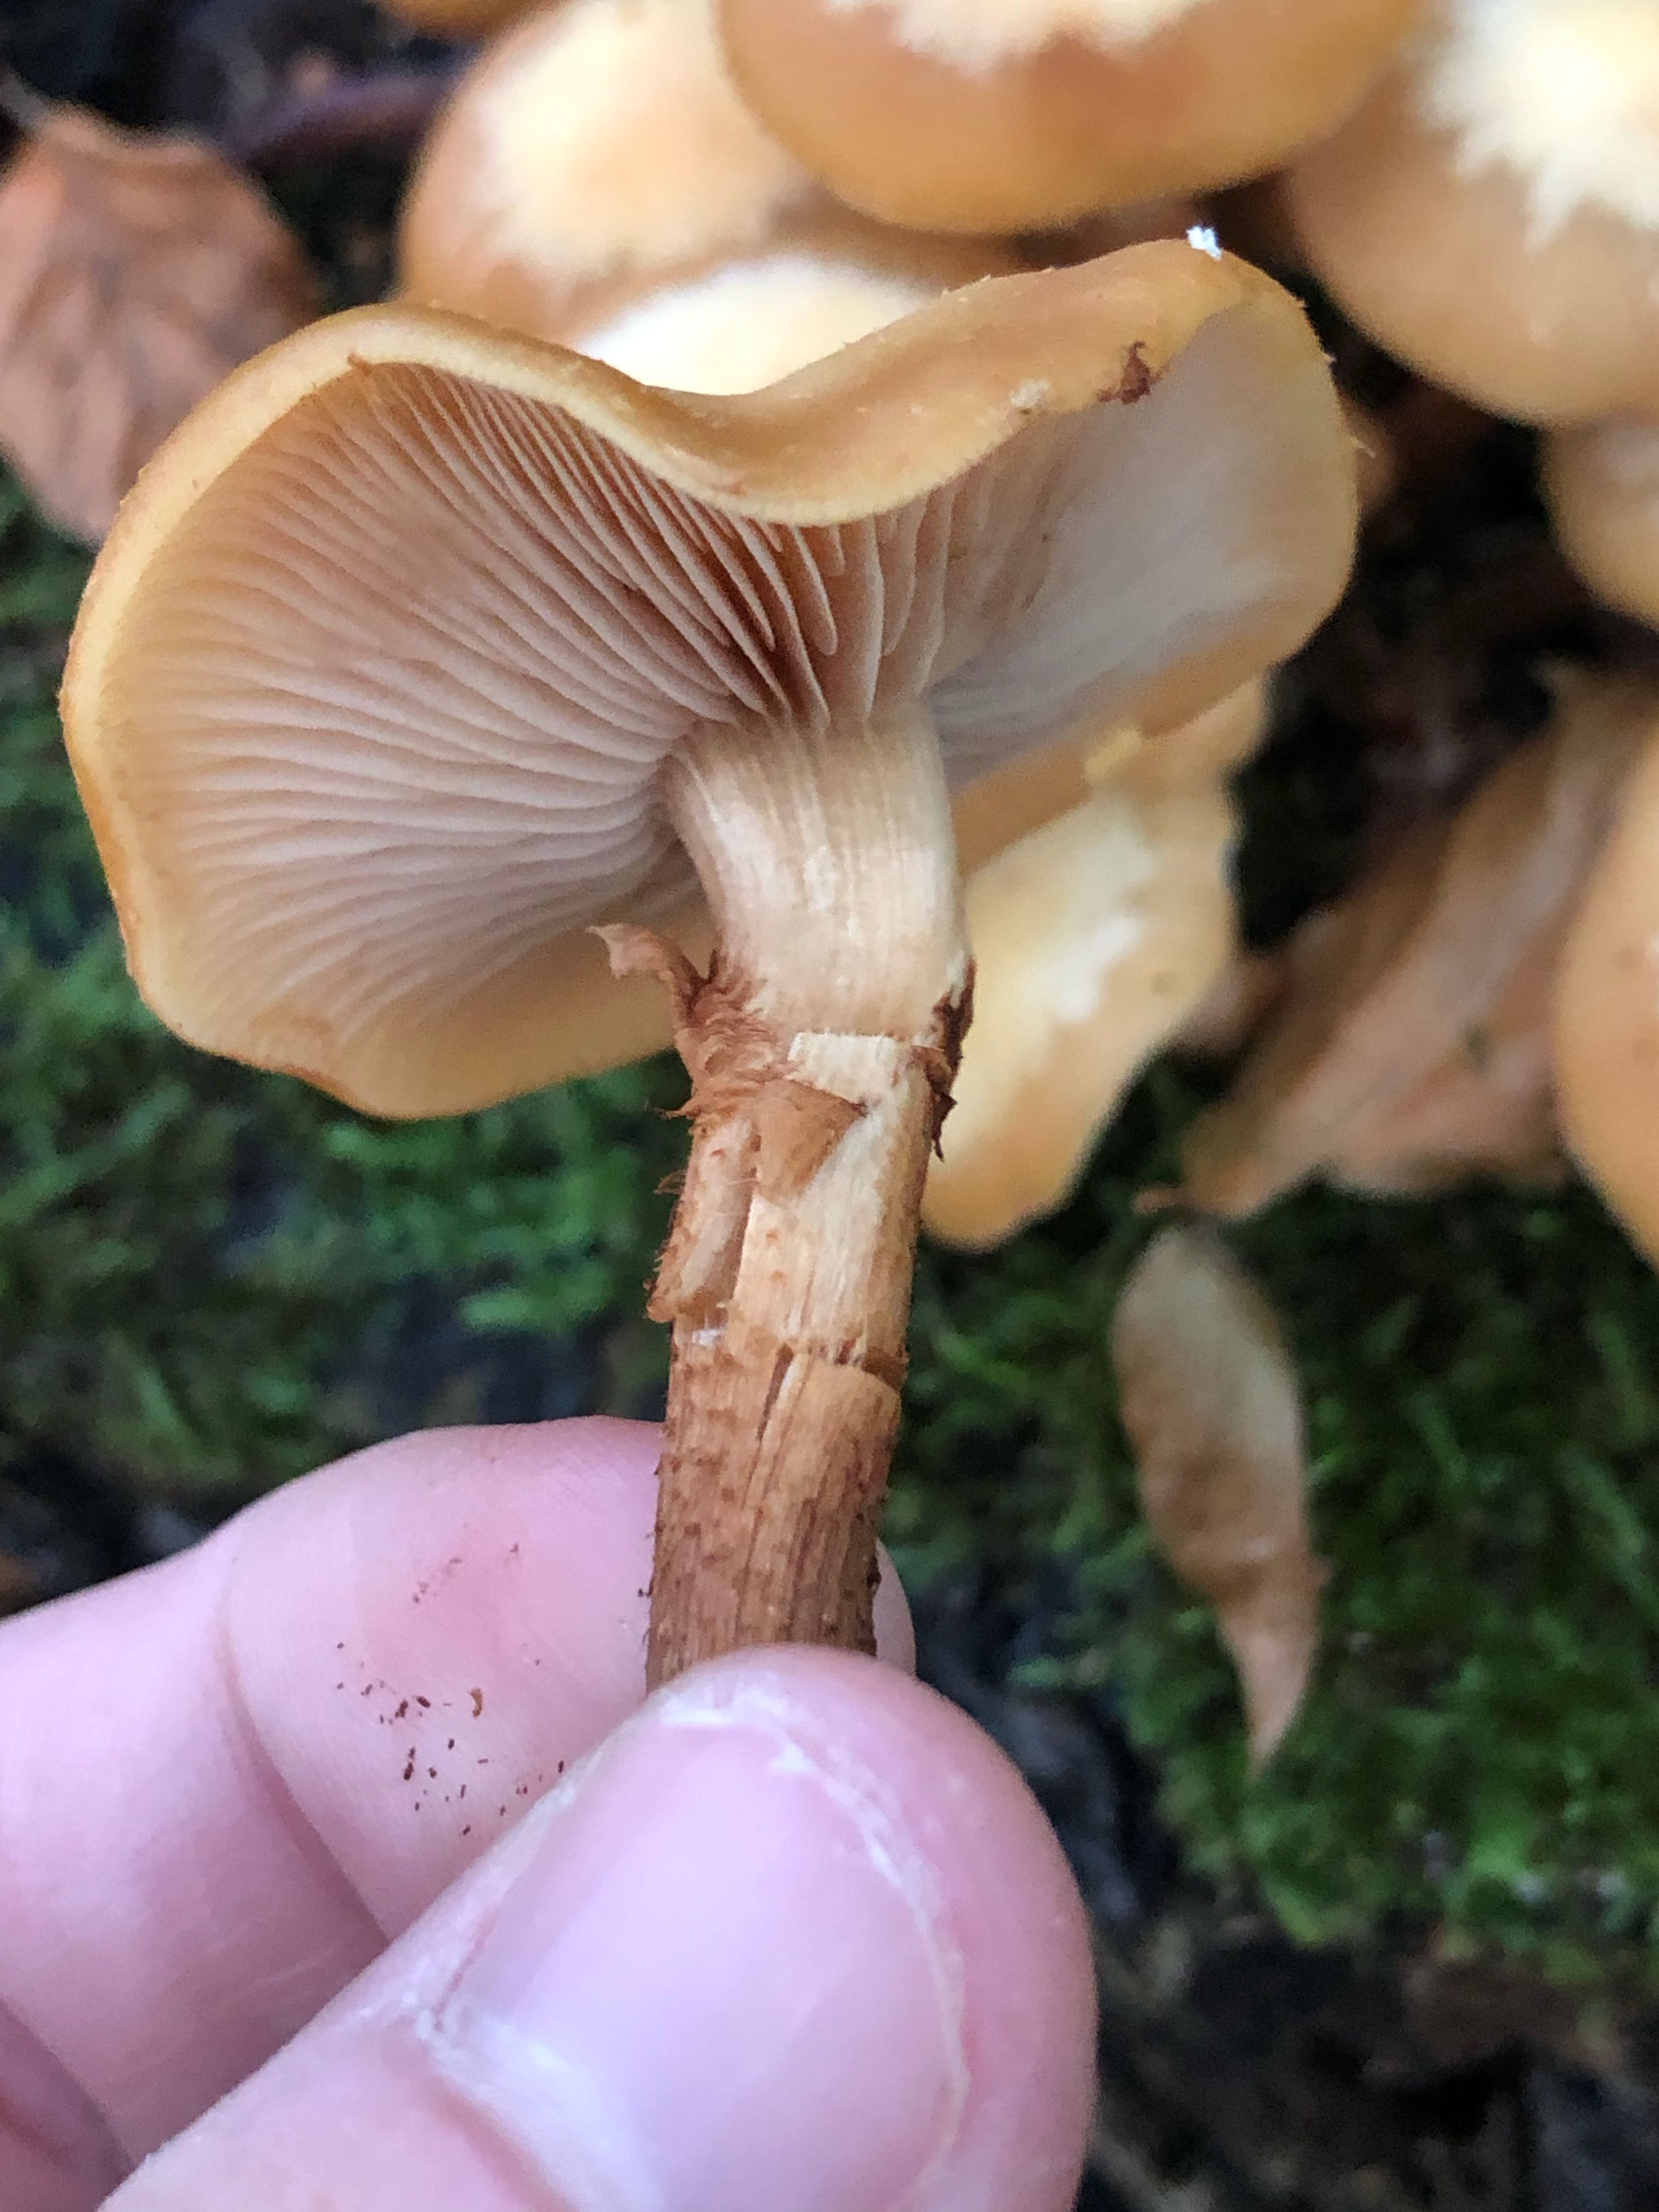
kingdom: Fungi
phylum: Basidiomycota
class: Agaricomycetes
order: Agaricales
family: Strophariaceae
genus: Kuehneromyces
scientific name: Kuehneromyces mutabilis
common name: foranderlig skælhat
